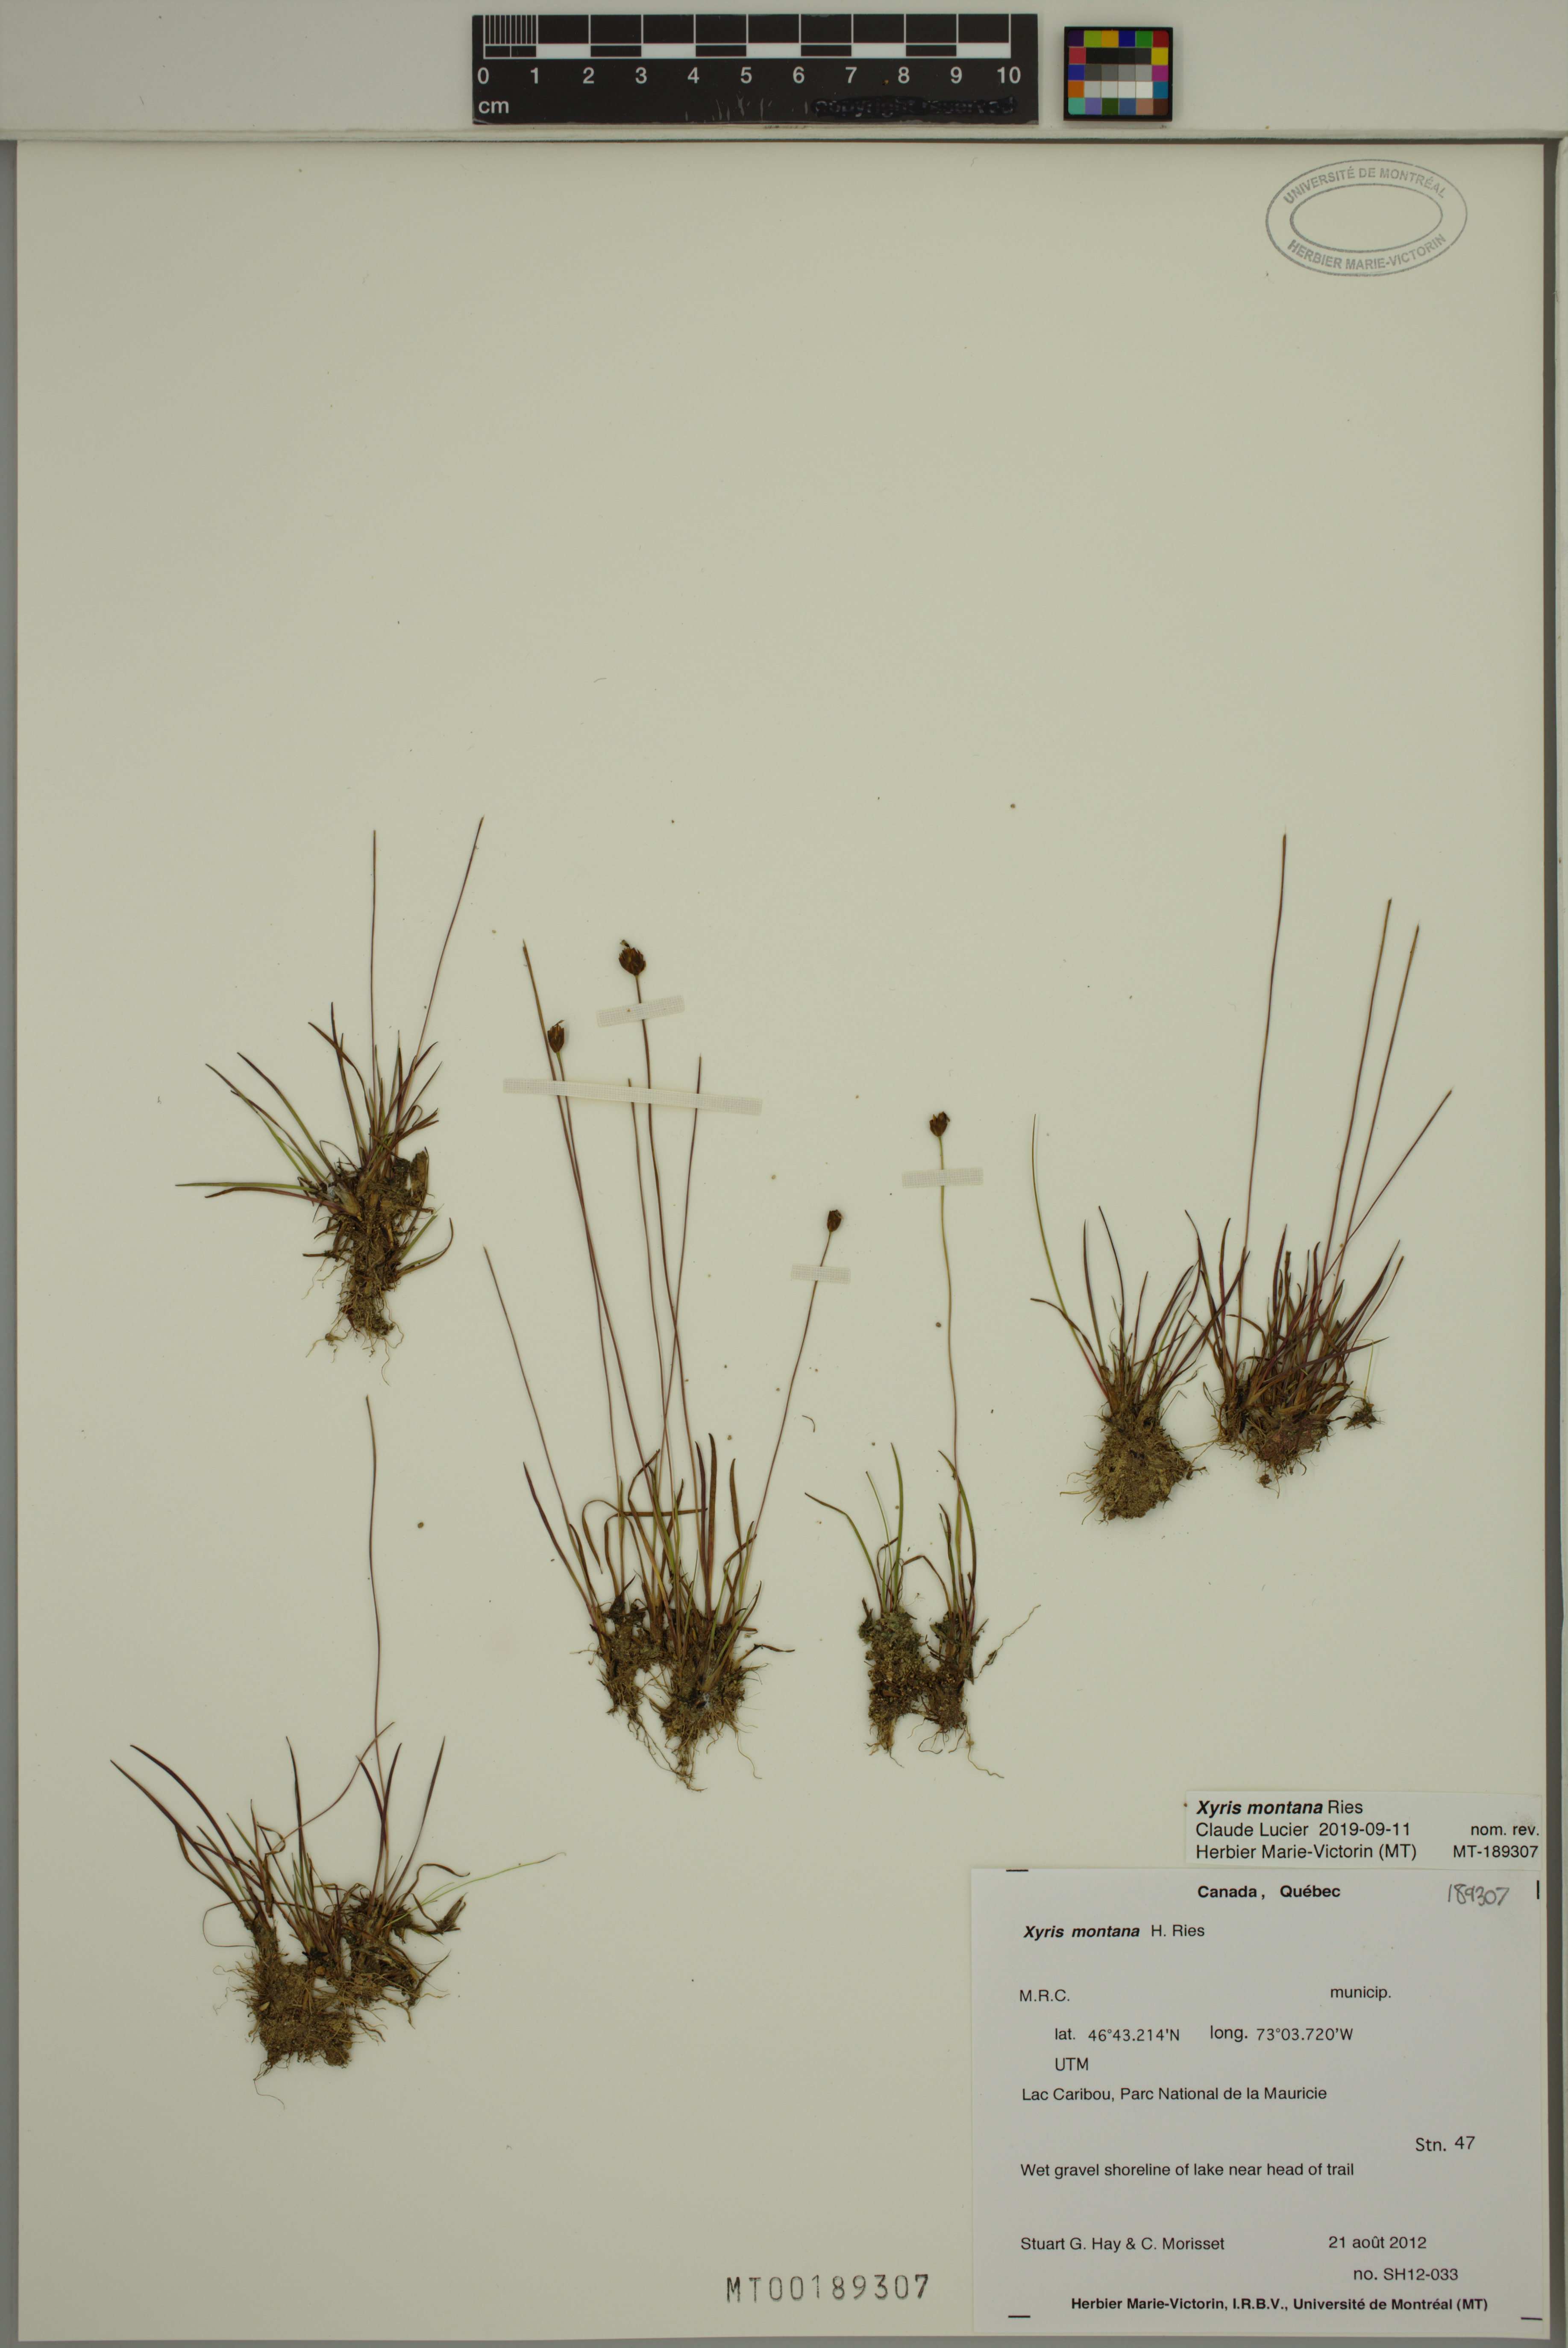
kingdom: Plantae
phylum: Tracheophyta
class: Liliopsida
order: Poales
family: Xyridaceae
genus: Xyris
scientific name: Xyris montana
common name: Northern yellow-eyed-grass
